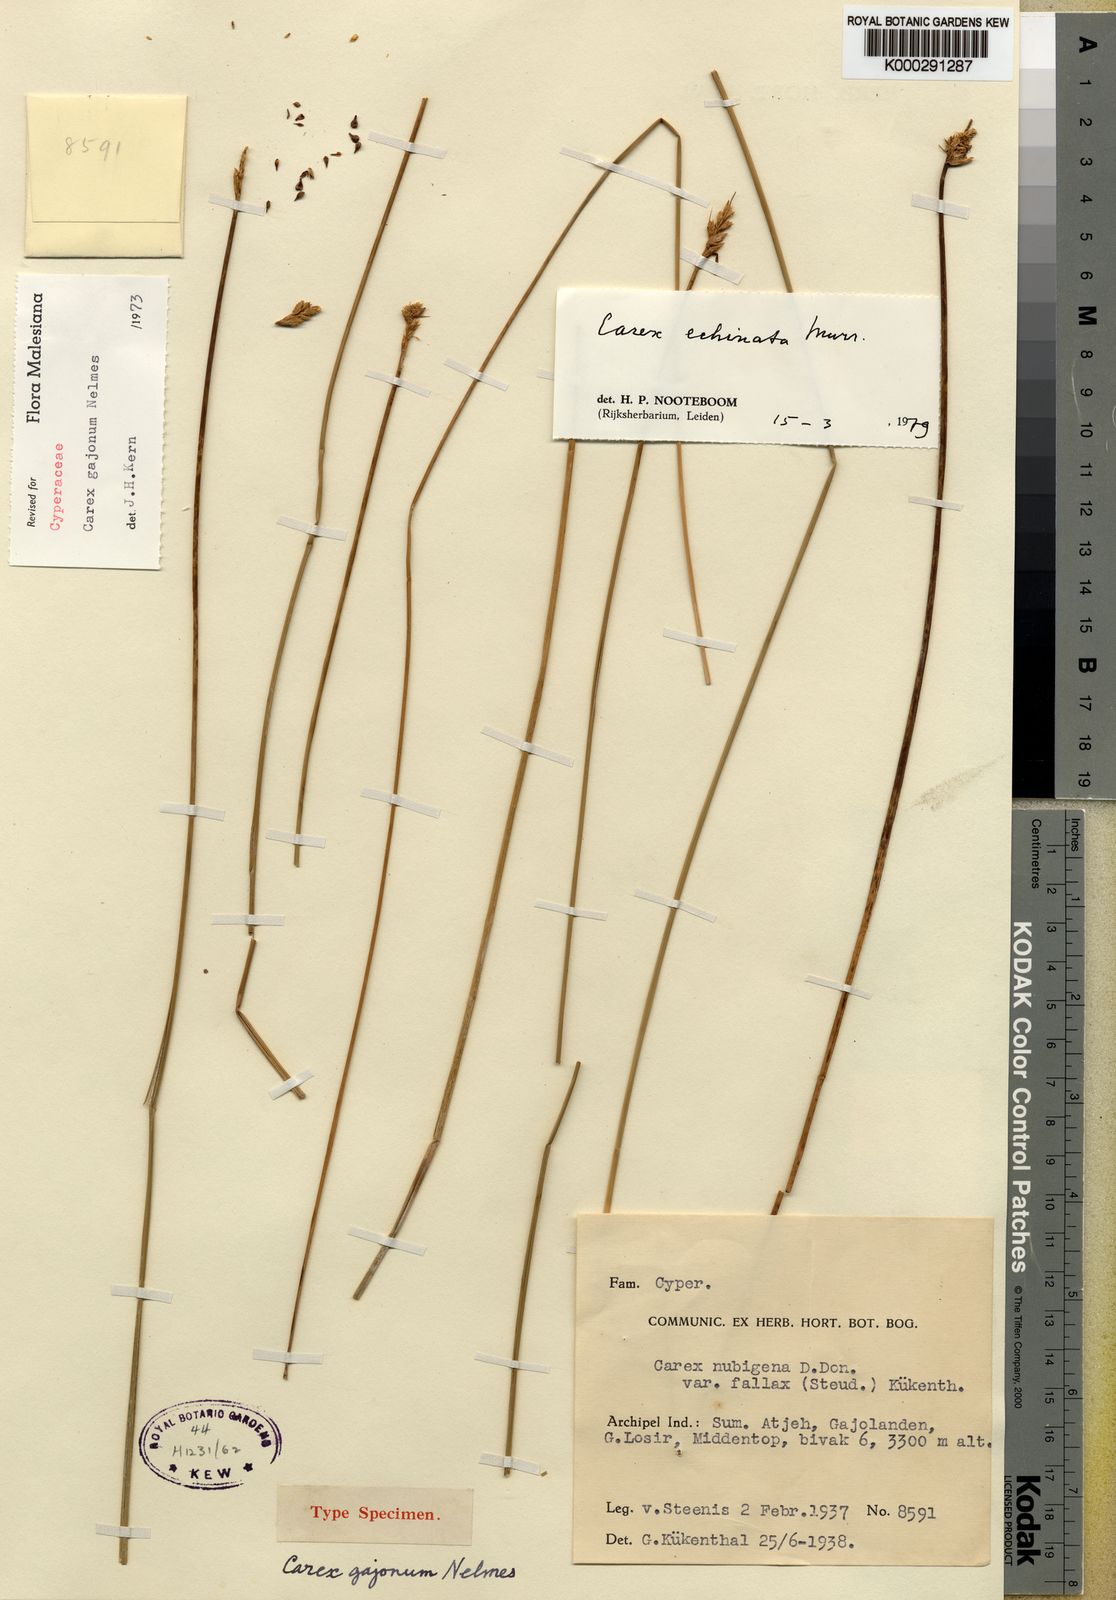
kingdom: Plantae
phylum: Tracheophyta
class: Liliopsida
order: Poales
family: Cyperaceae
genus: Carex
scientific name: Carex echinata
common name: Star sedge
